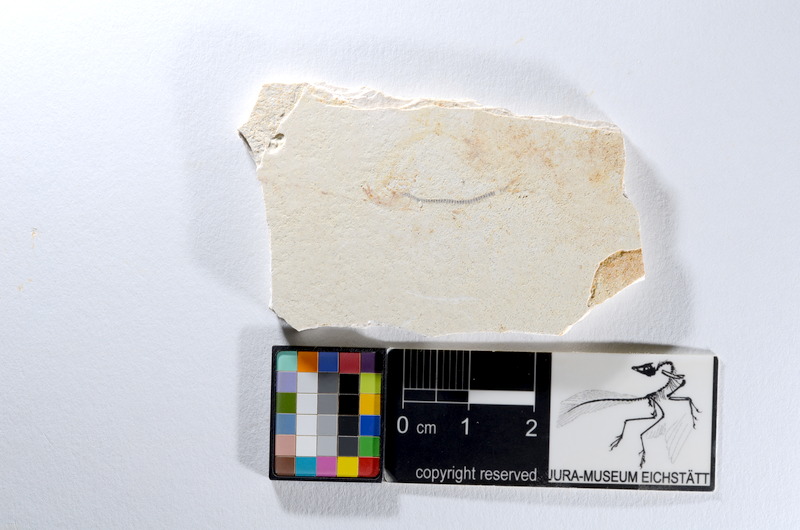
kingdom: Animalia
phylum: Chordata
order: Salmoniformes
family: Orthogonikleithridae
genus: Orthogonikleithrus
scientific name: Orthogonikleithrus hoelli
